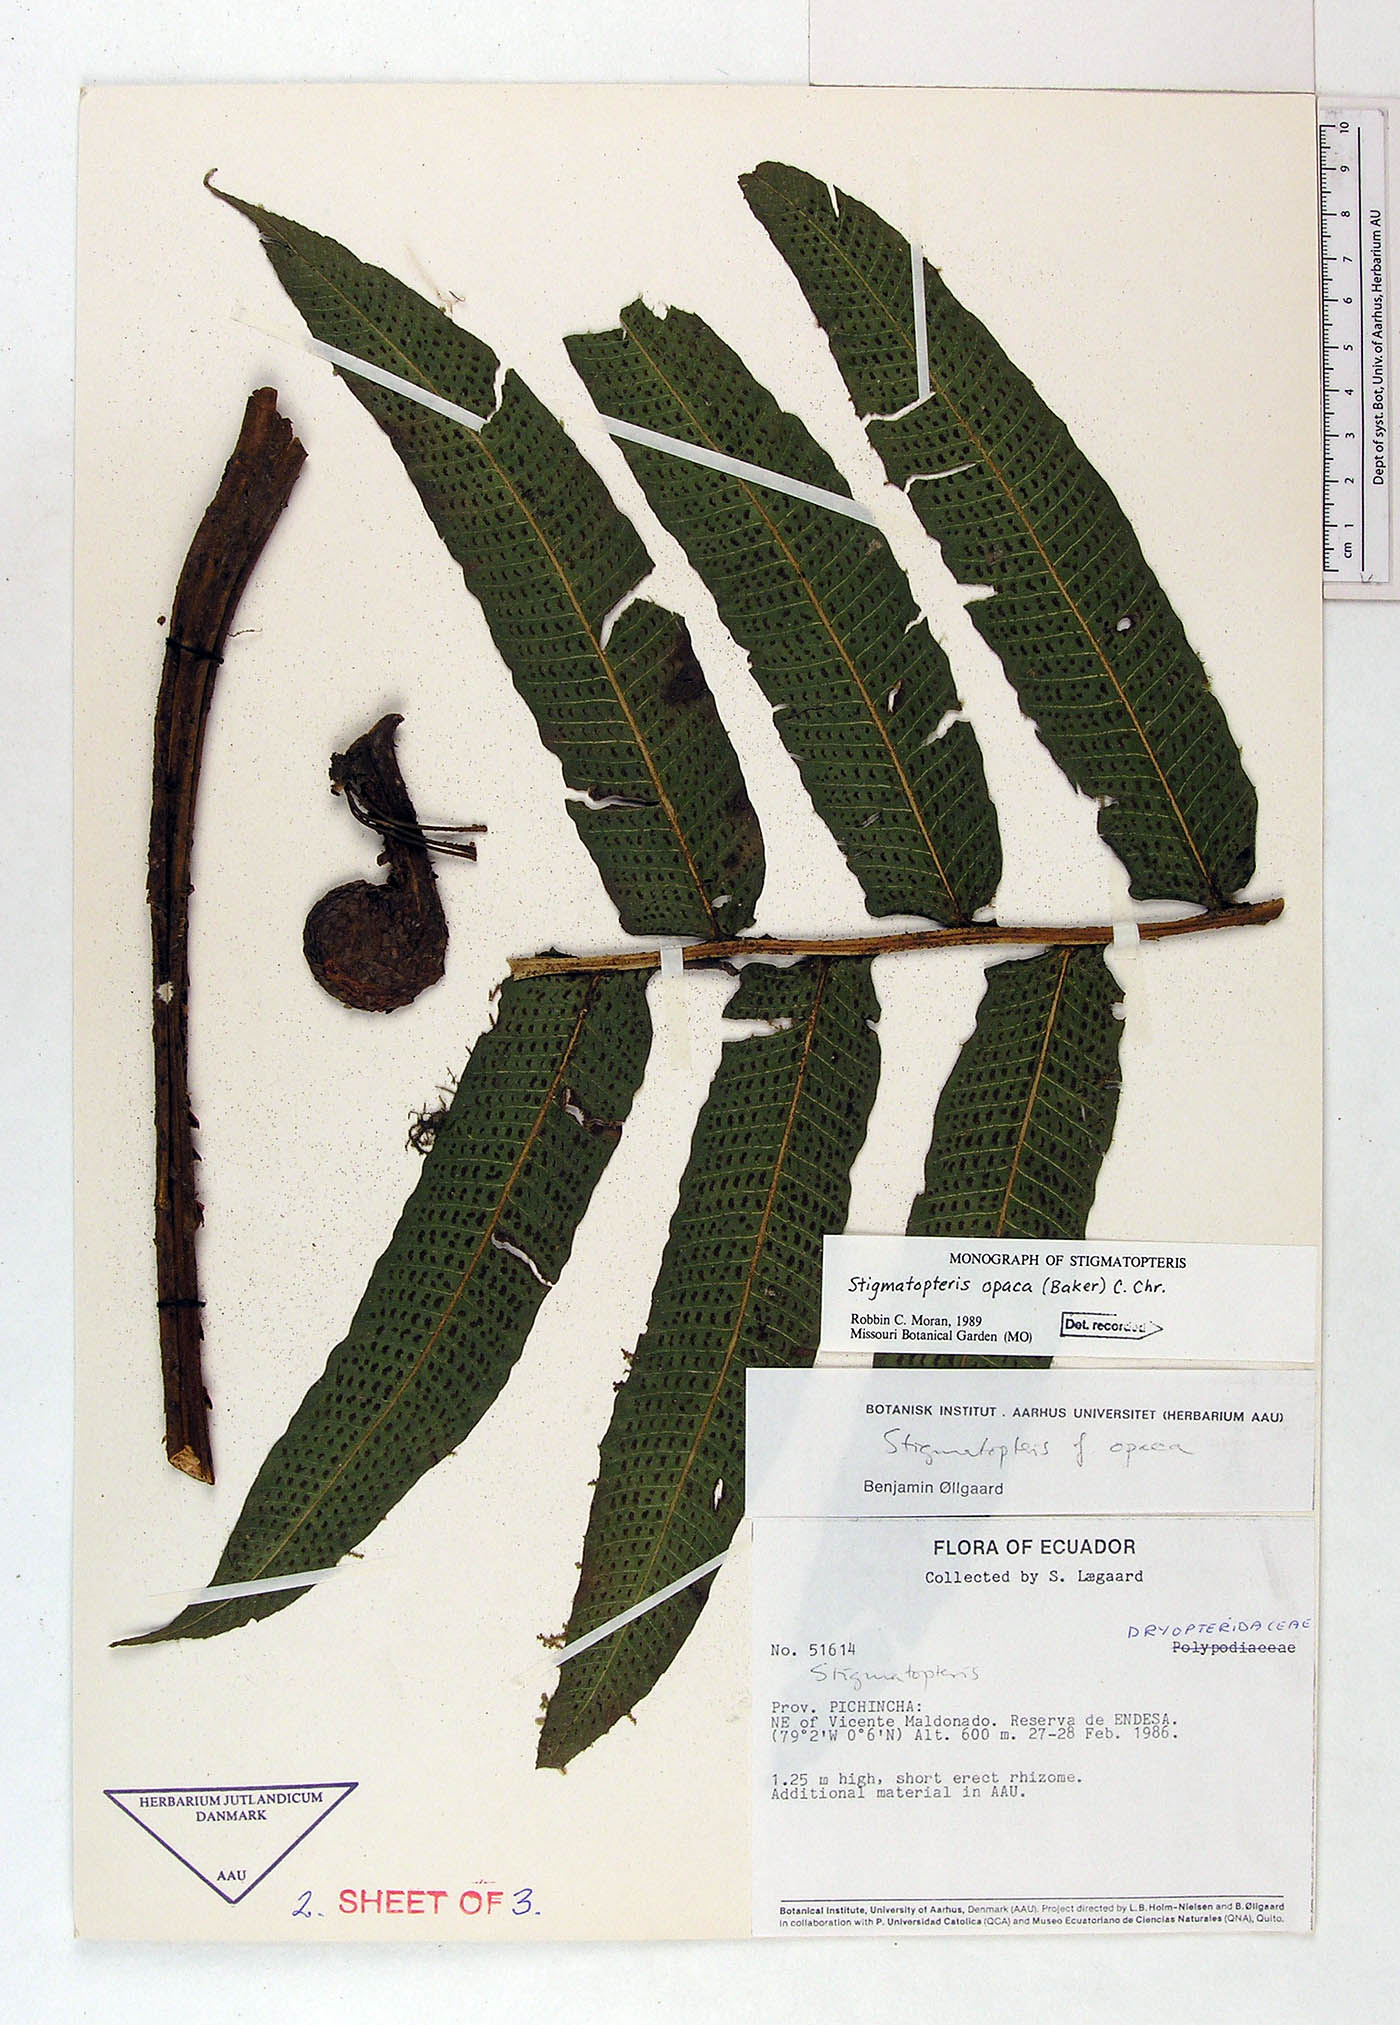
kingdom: Plantae
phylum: Tracheophyta
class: Polypodiopsida
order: Polypodiales
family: Dryopteridaceae
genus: Stigmatopteris
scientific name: Stigmatopteris opaca
